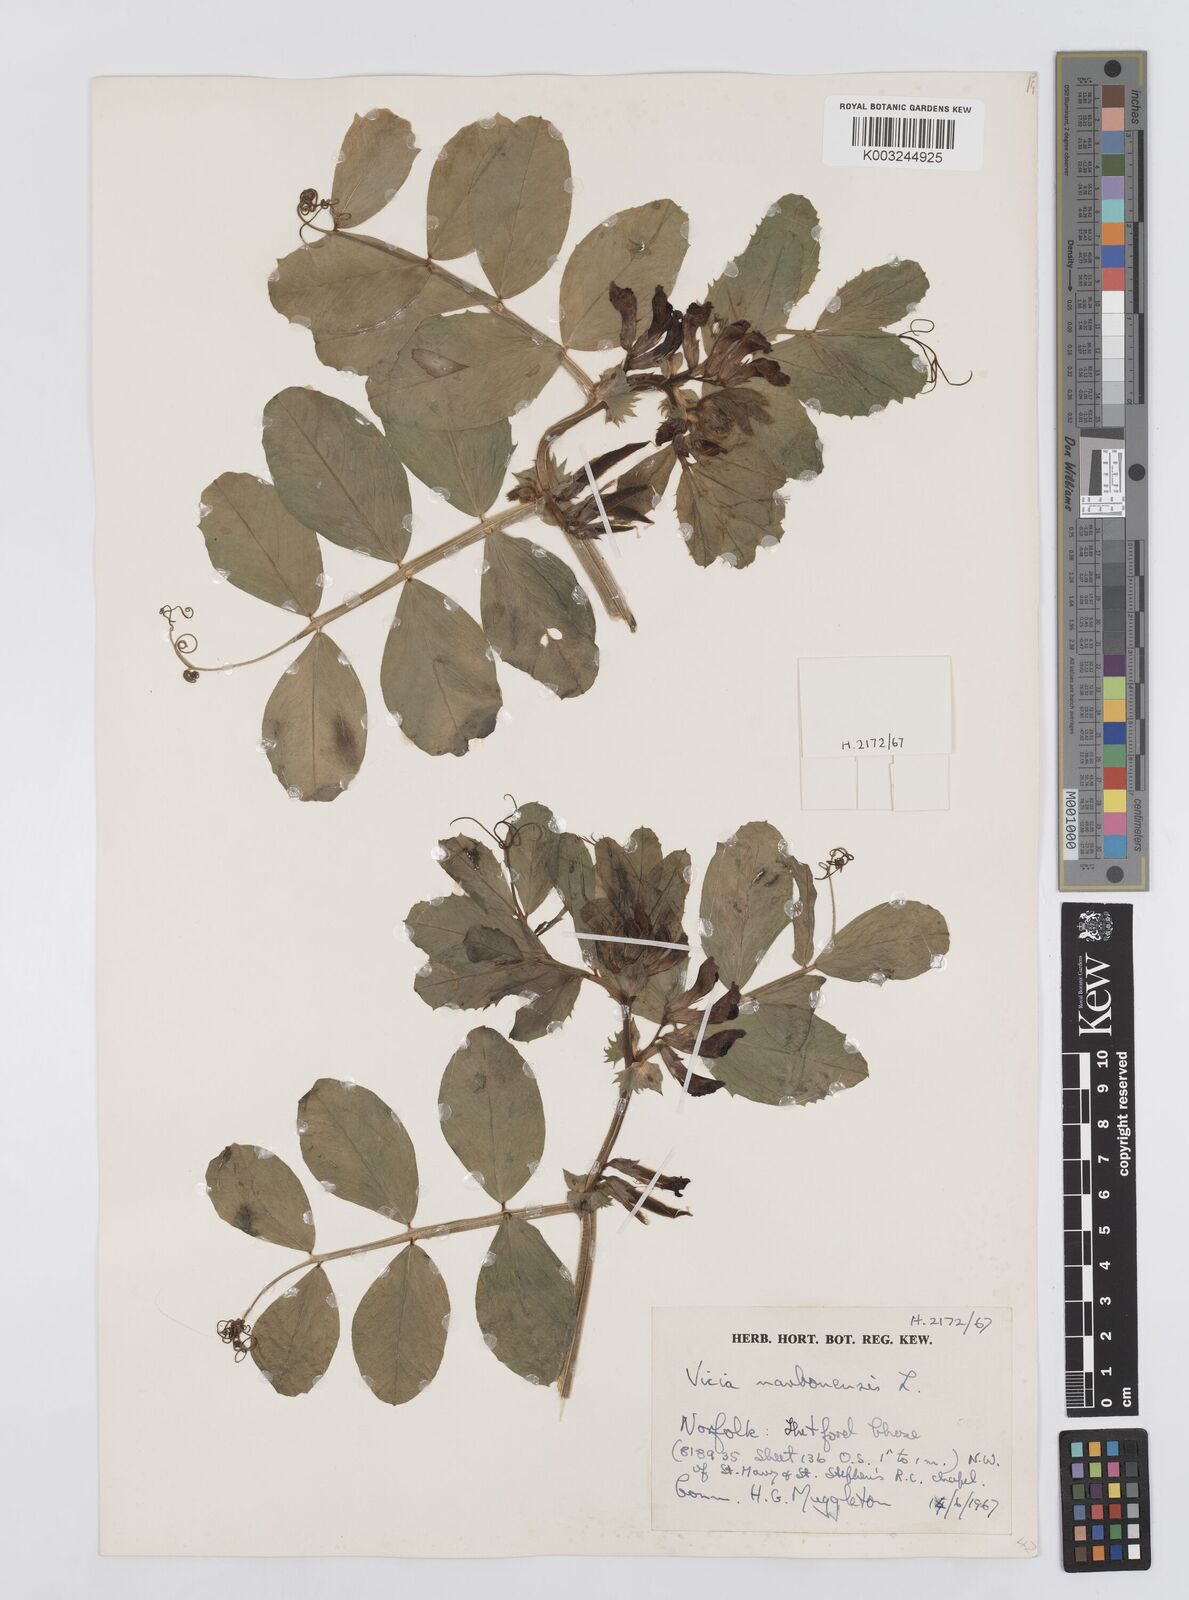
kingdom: Plantae
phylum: Tracheophyta
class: Magnoliopsida
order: Fabales
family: Fabaceae
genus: Vicia
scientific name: Vicia narbonensis
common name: Narbonne vetch
